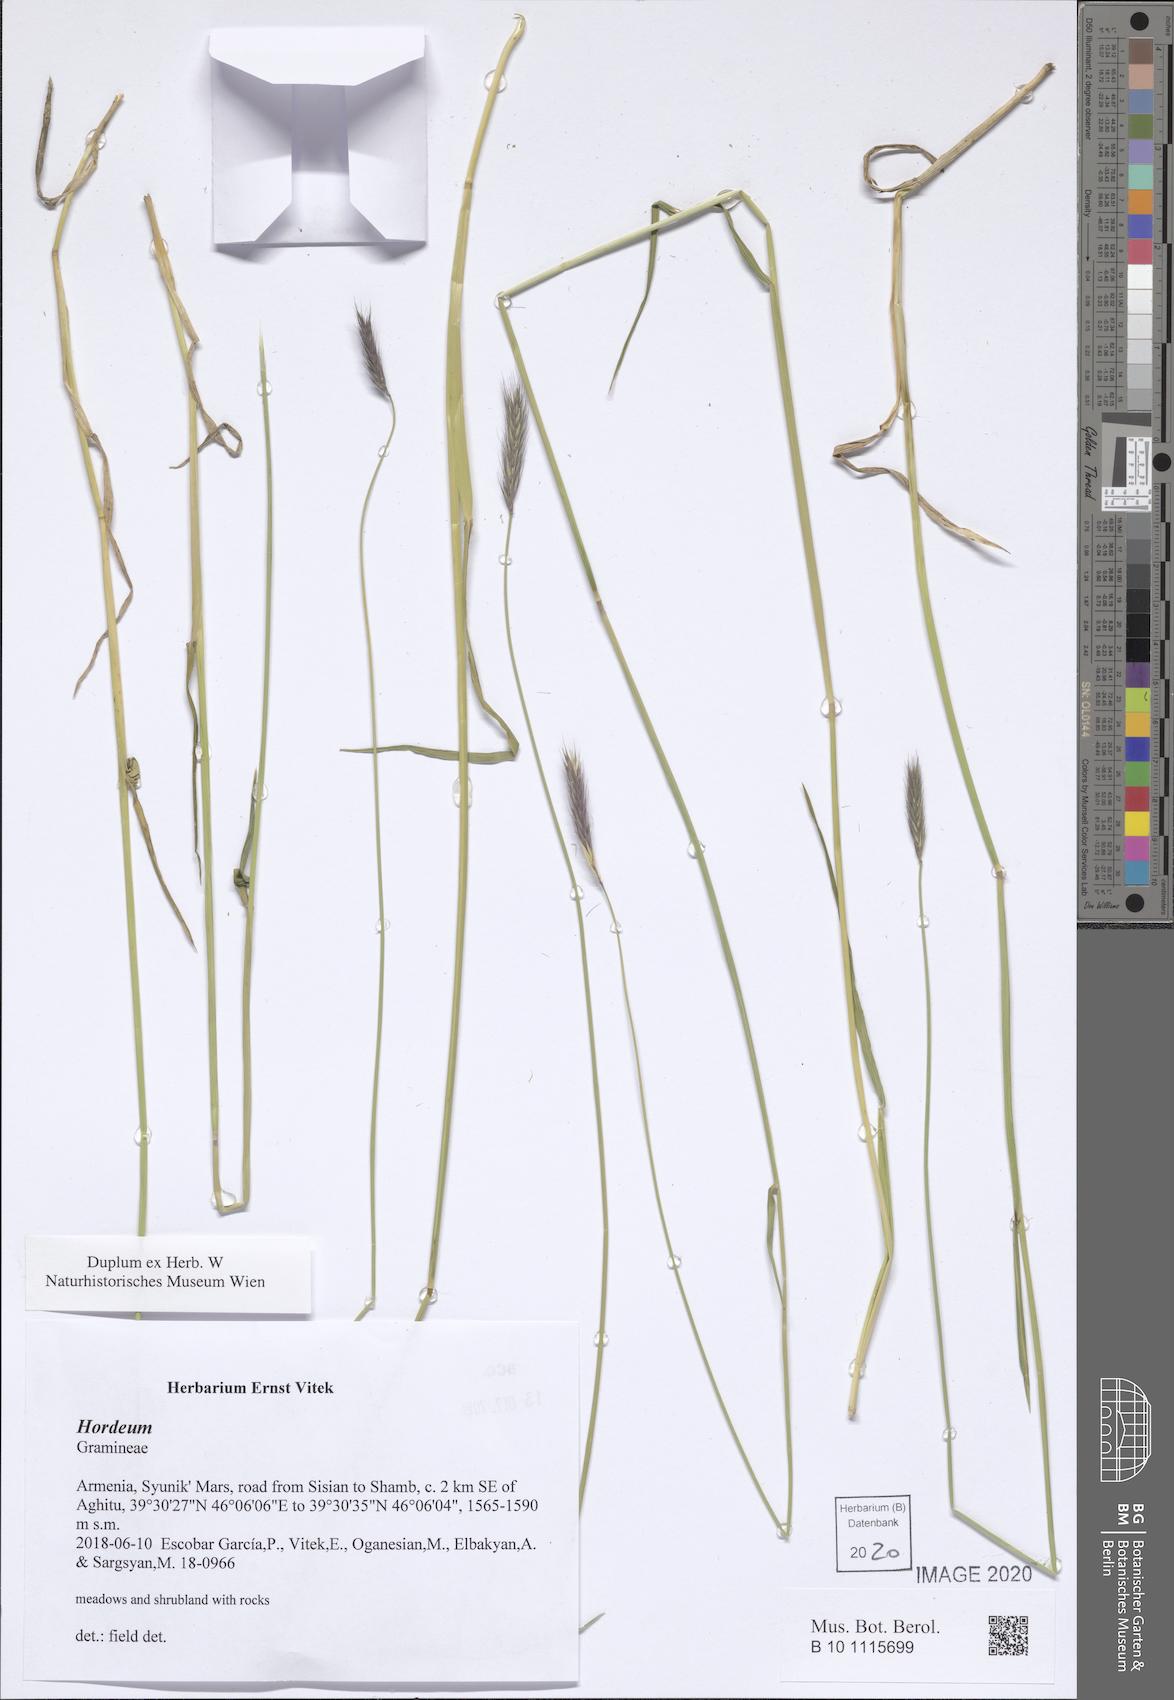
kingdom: Plantae
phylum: Tracheophyta
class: Liliopsida
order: Poales
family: Poaceae
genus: Hordeum
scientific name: Hordeum
